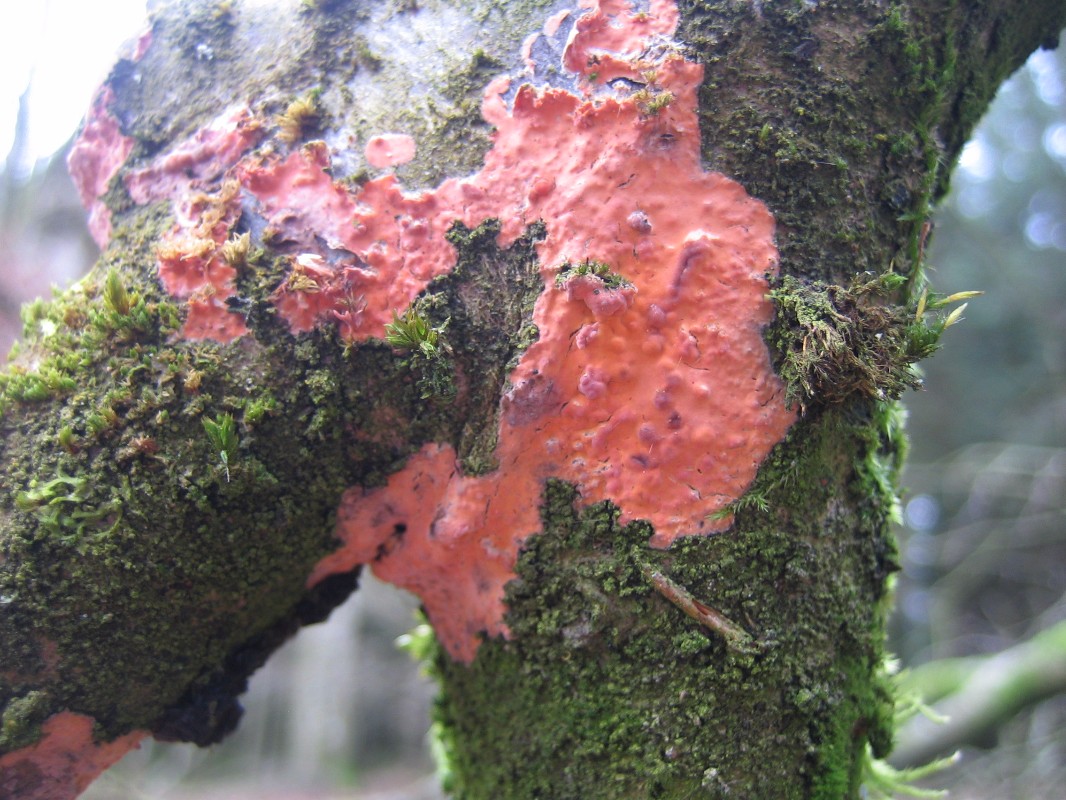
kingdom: Fungi
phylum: Basidiomycota
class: Agaricomycetes
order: Russulales
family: Peniophoraceae
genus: Peniophora
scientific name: Peniophora incarnata
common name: laksefarvet voksskind
